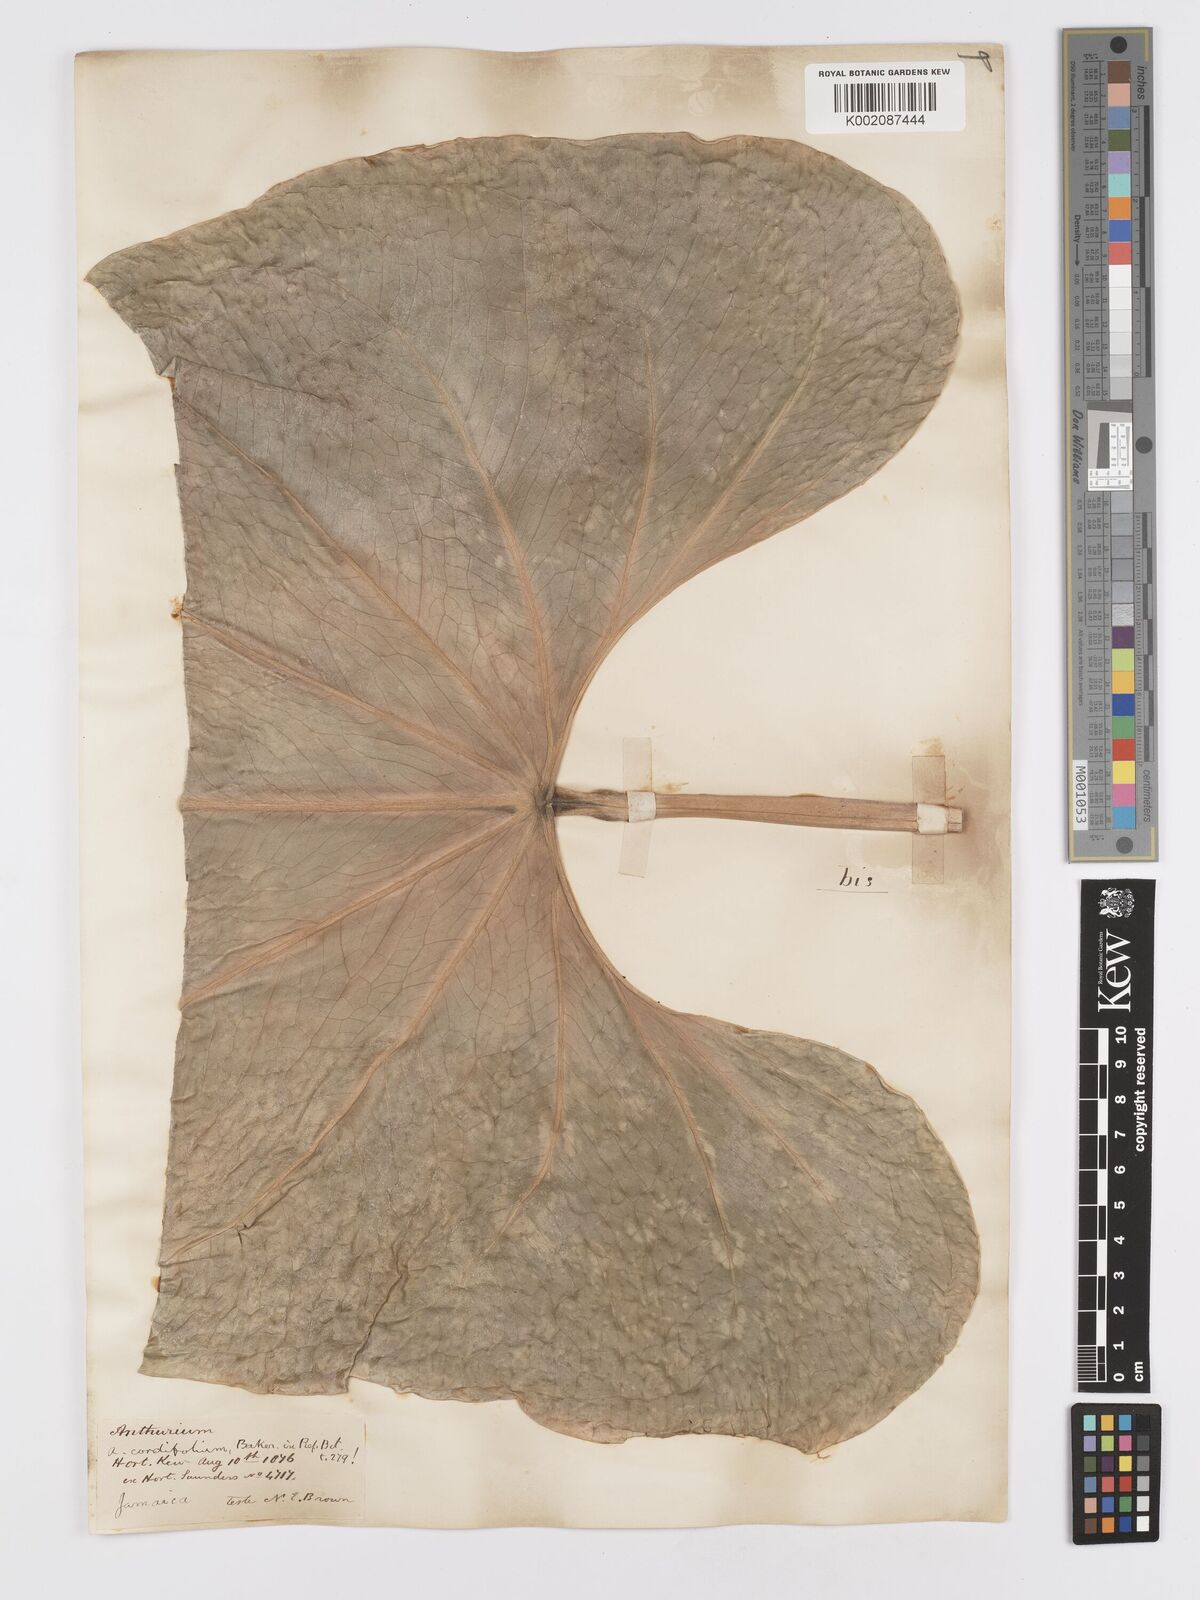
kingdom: Plantae
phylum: Tracheophyta
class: Liliopsida
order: Alismatales
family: Araceae
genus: Anthurium
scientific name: Anthurium
